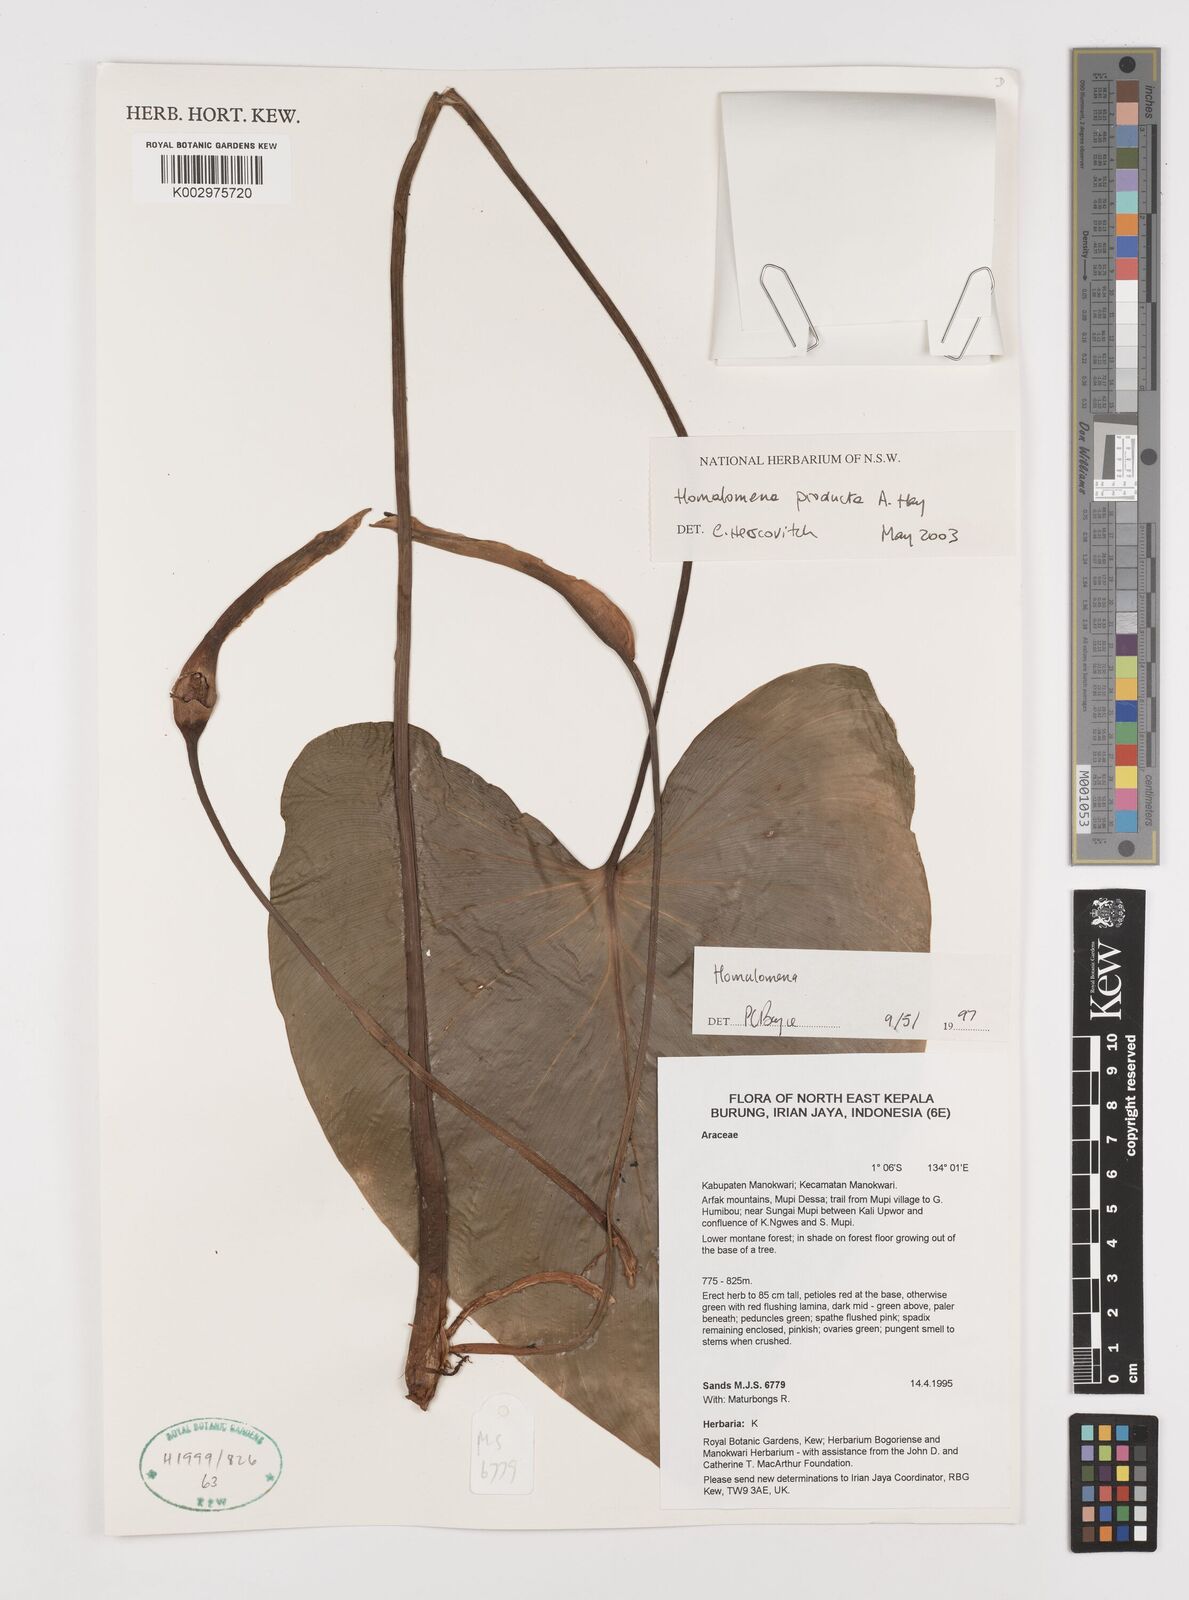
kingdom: Plantae
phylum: Tracheophyta
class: Liliopsida
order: Alismatales
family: Araceae
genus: Homalomena
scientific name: Homalomena producta
